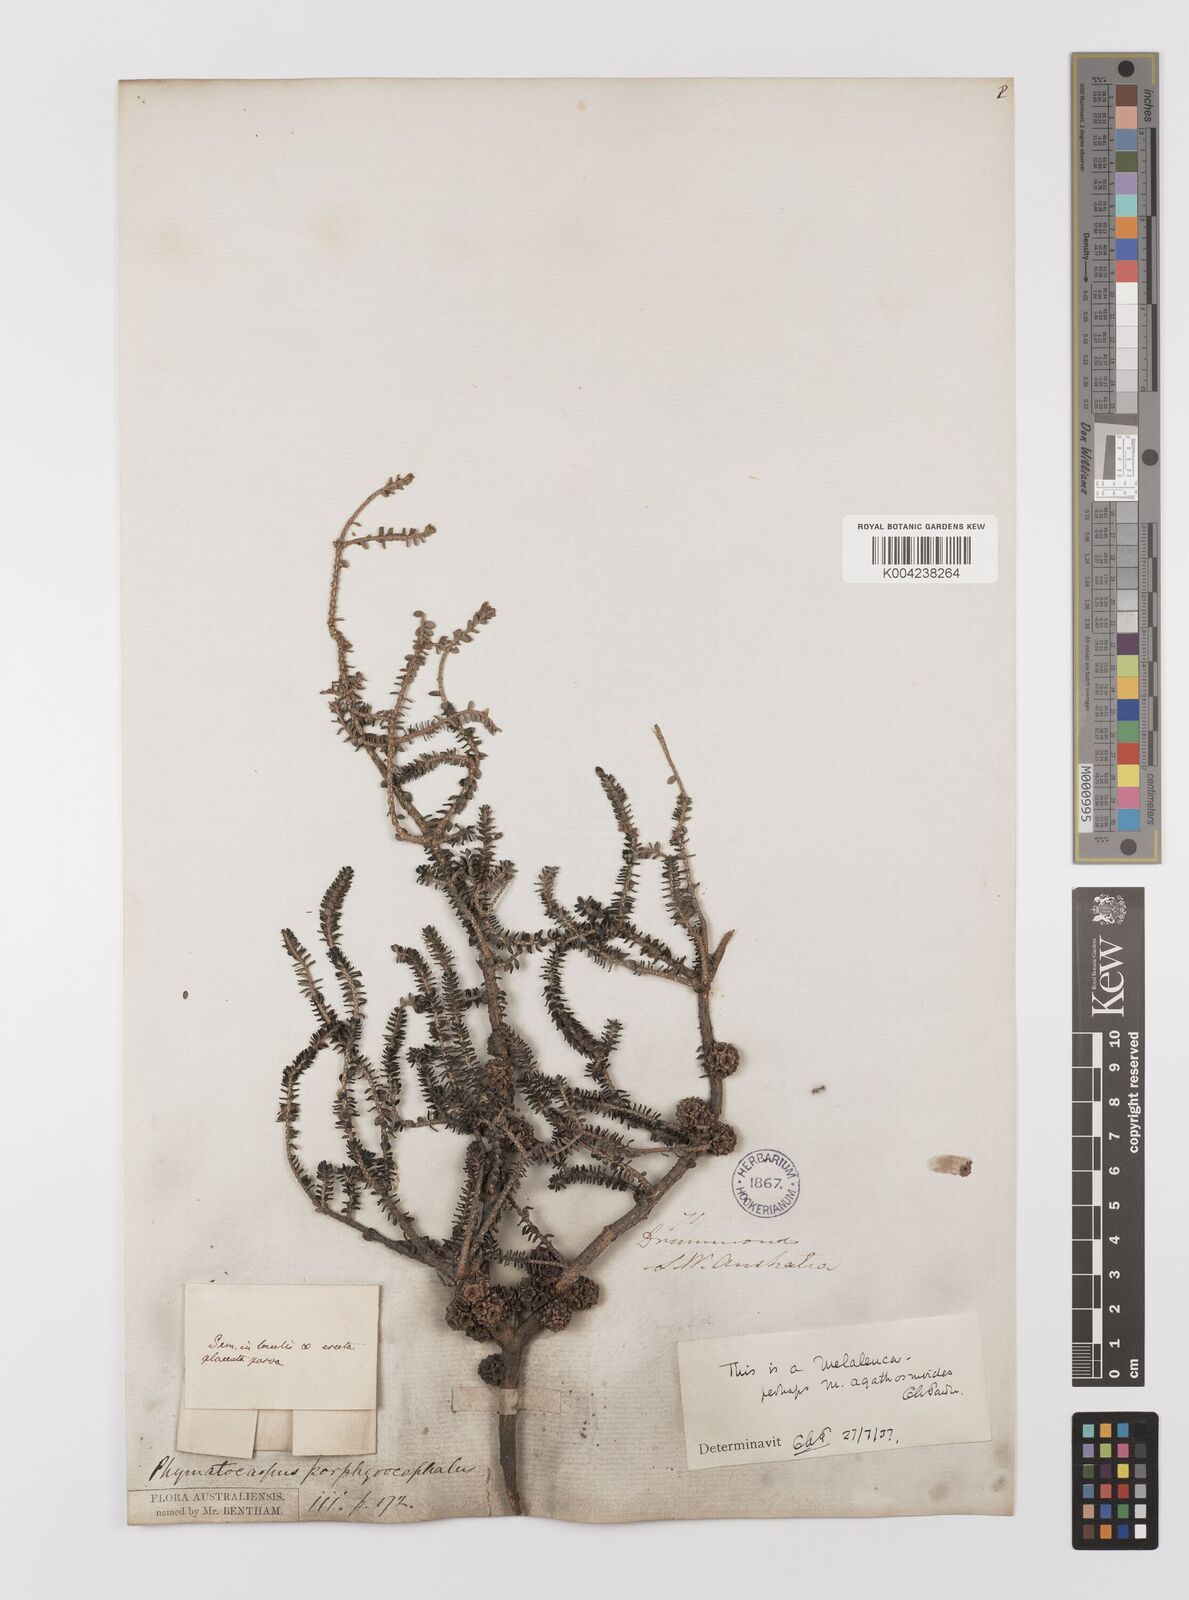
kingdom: Plantae
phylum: Tracheophyta
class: Magnoliopsida
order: Myrtales
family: Myrtaceae
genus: Melaleuca
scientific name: Melaleuca porphyrocephala
